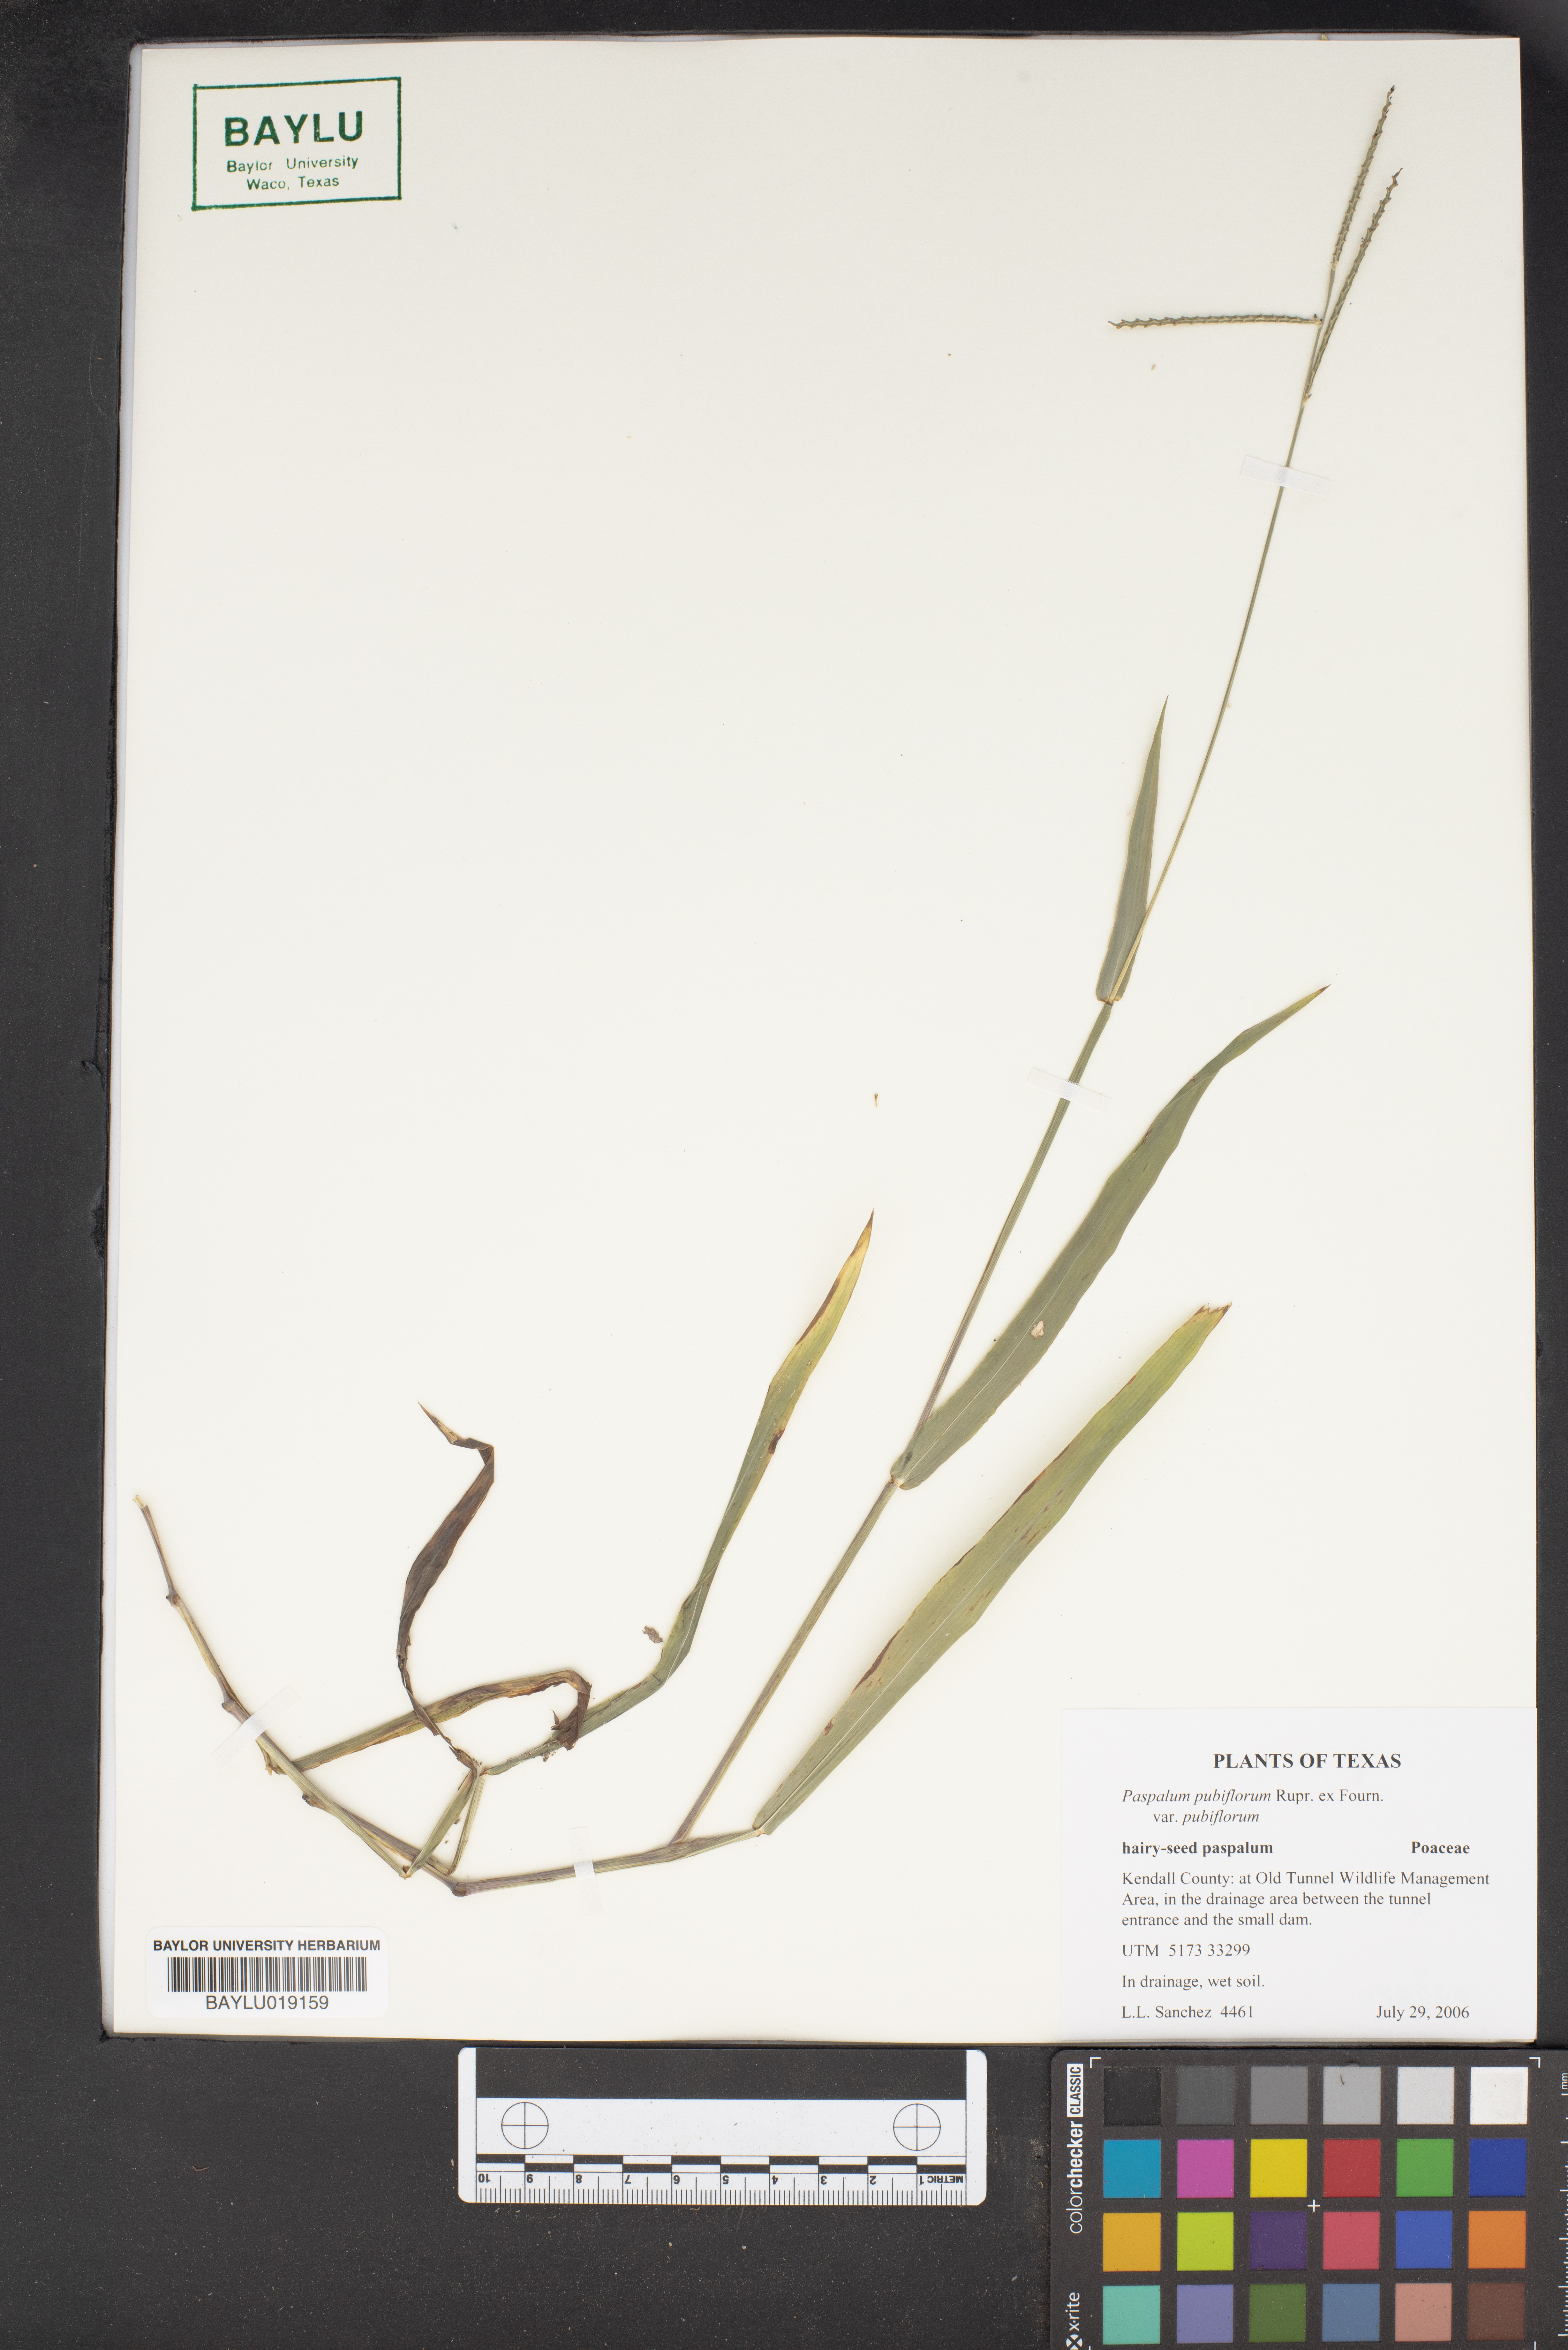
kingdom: Plantae
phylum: Tracheophyta
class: Liliopsida
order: Poales
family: Poaceae
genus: Paspalum
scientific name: Paspalum pubiflorum
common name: Hairy-seed paspalum
